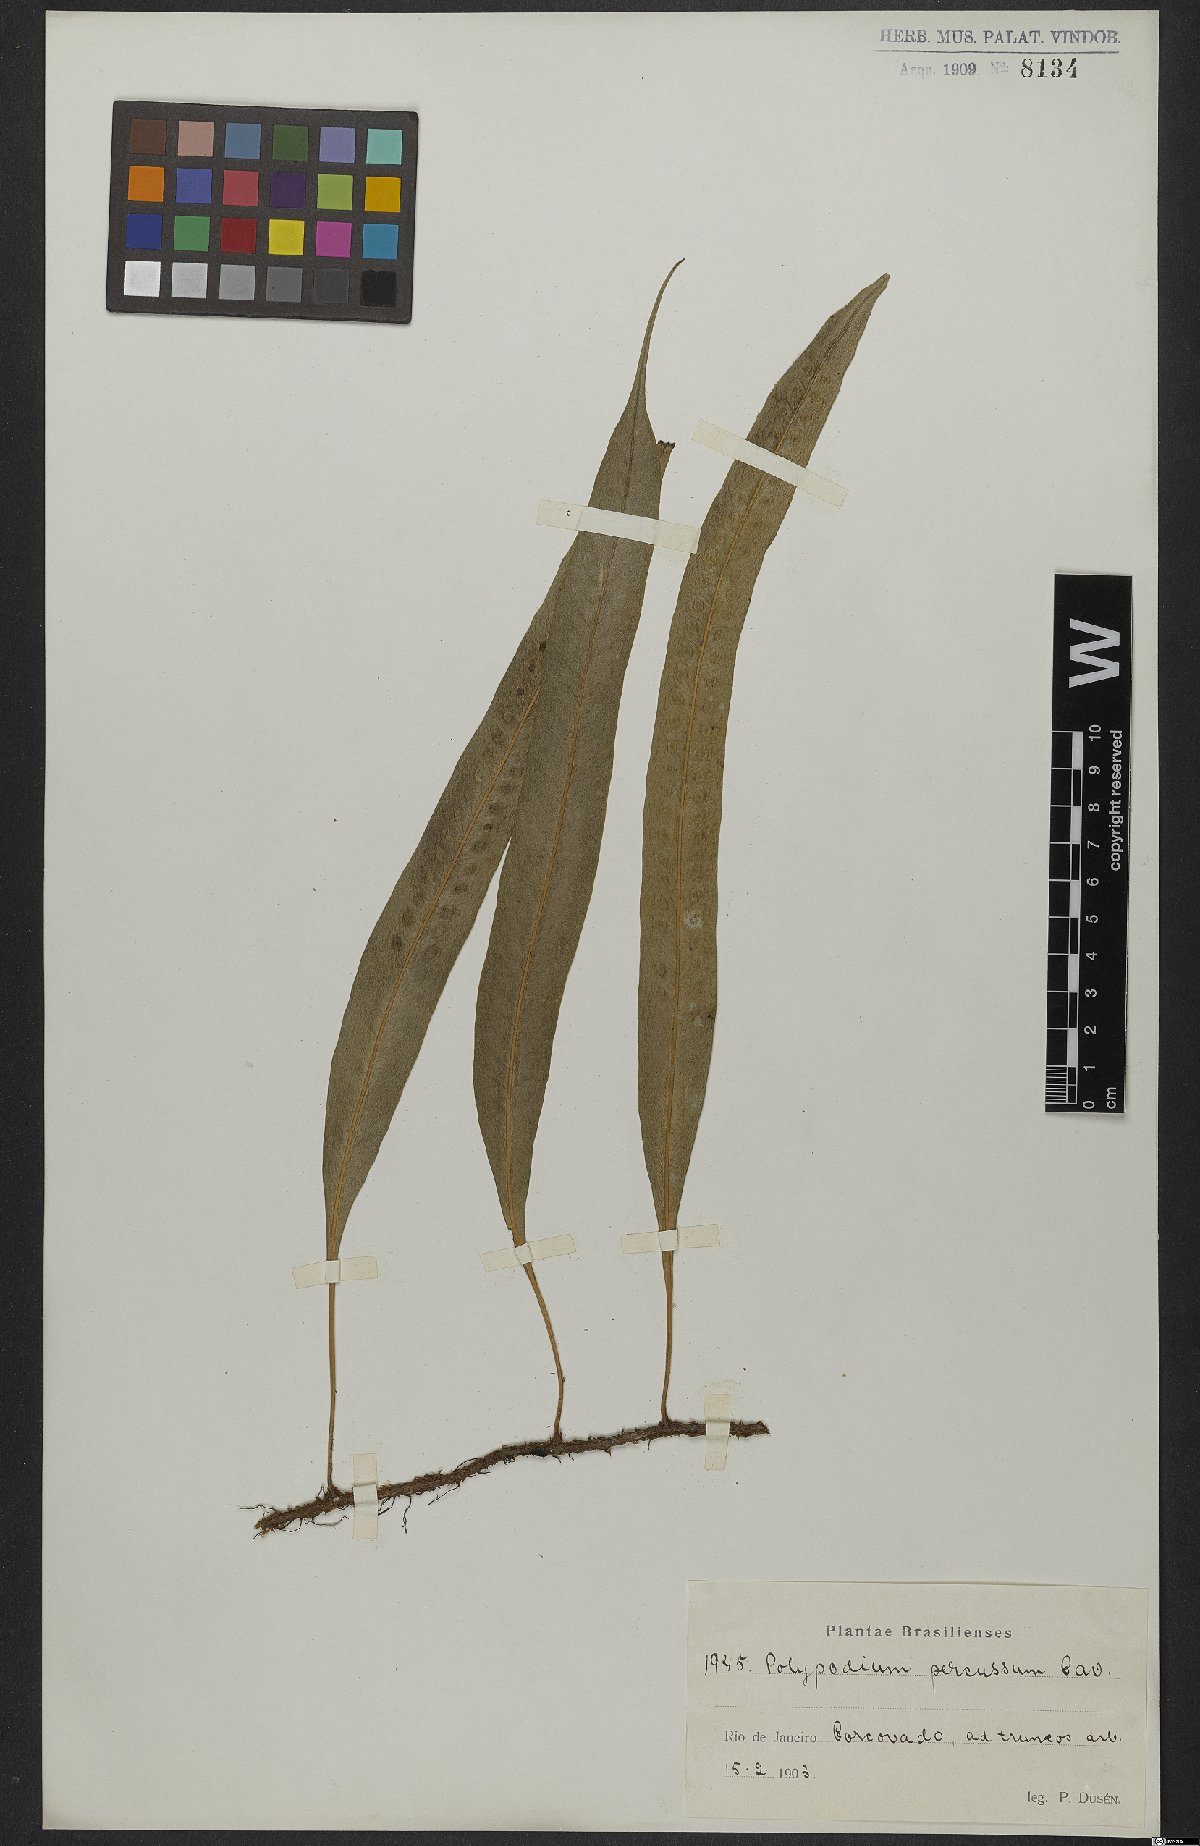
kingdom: Plantae
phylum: Tracheophyta
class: Polypodiopsida
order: Polypodiales
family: Polypodiaceae
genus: Microgramma
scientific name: Microgramma percussa
